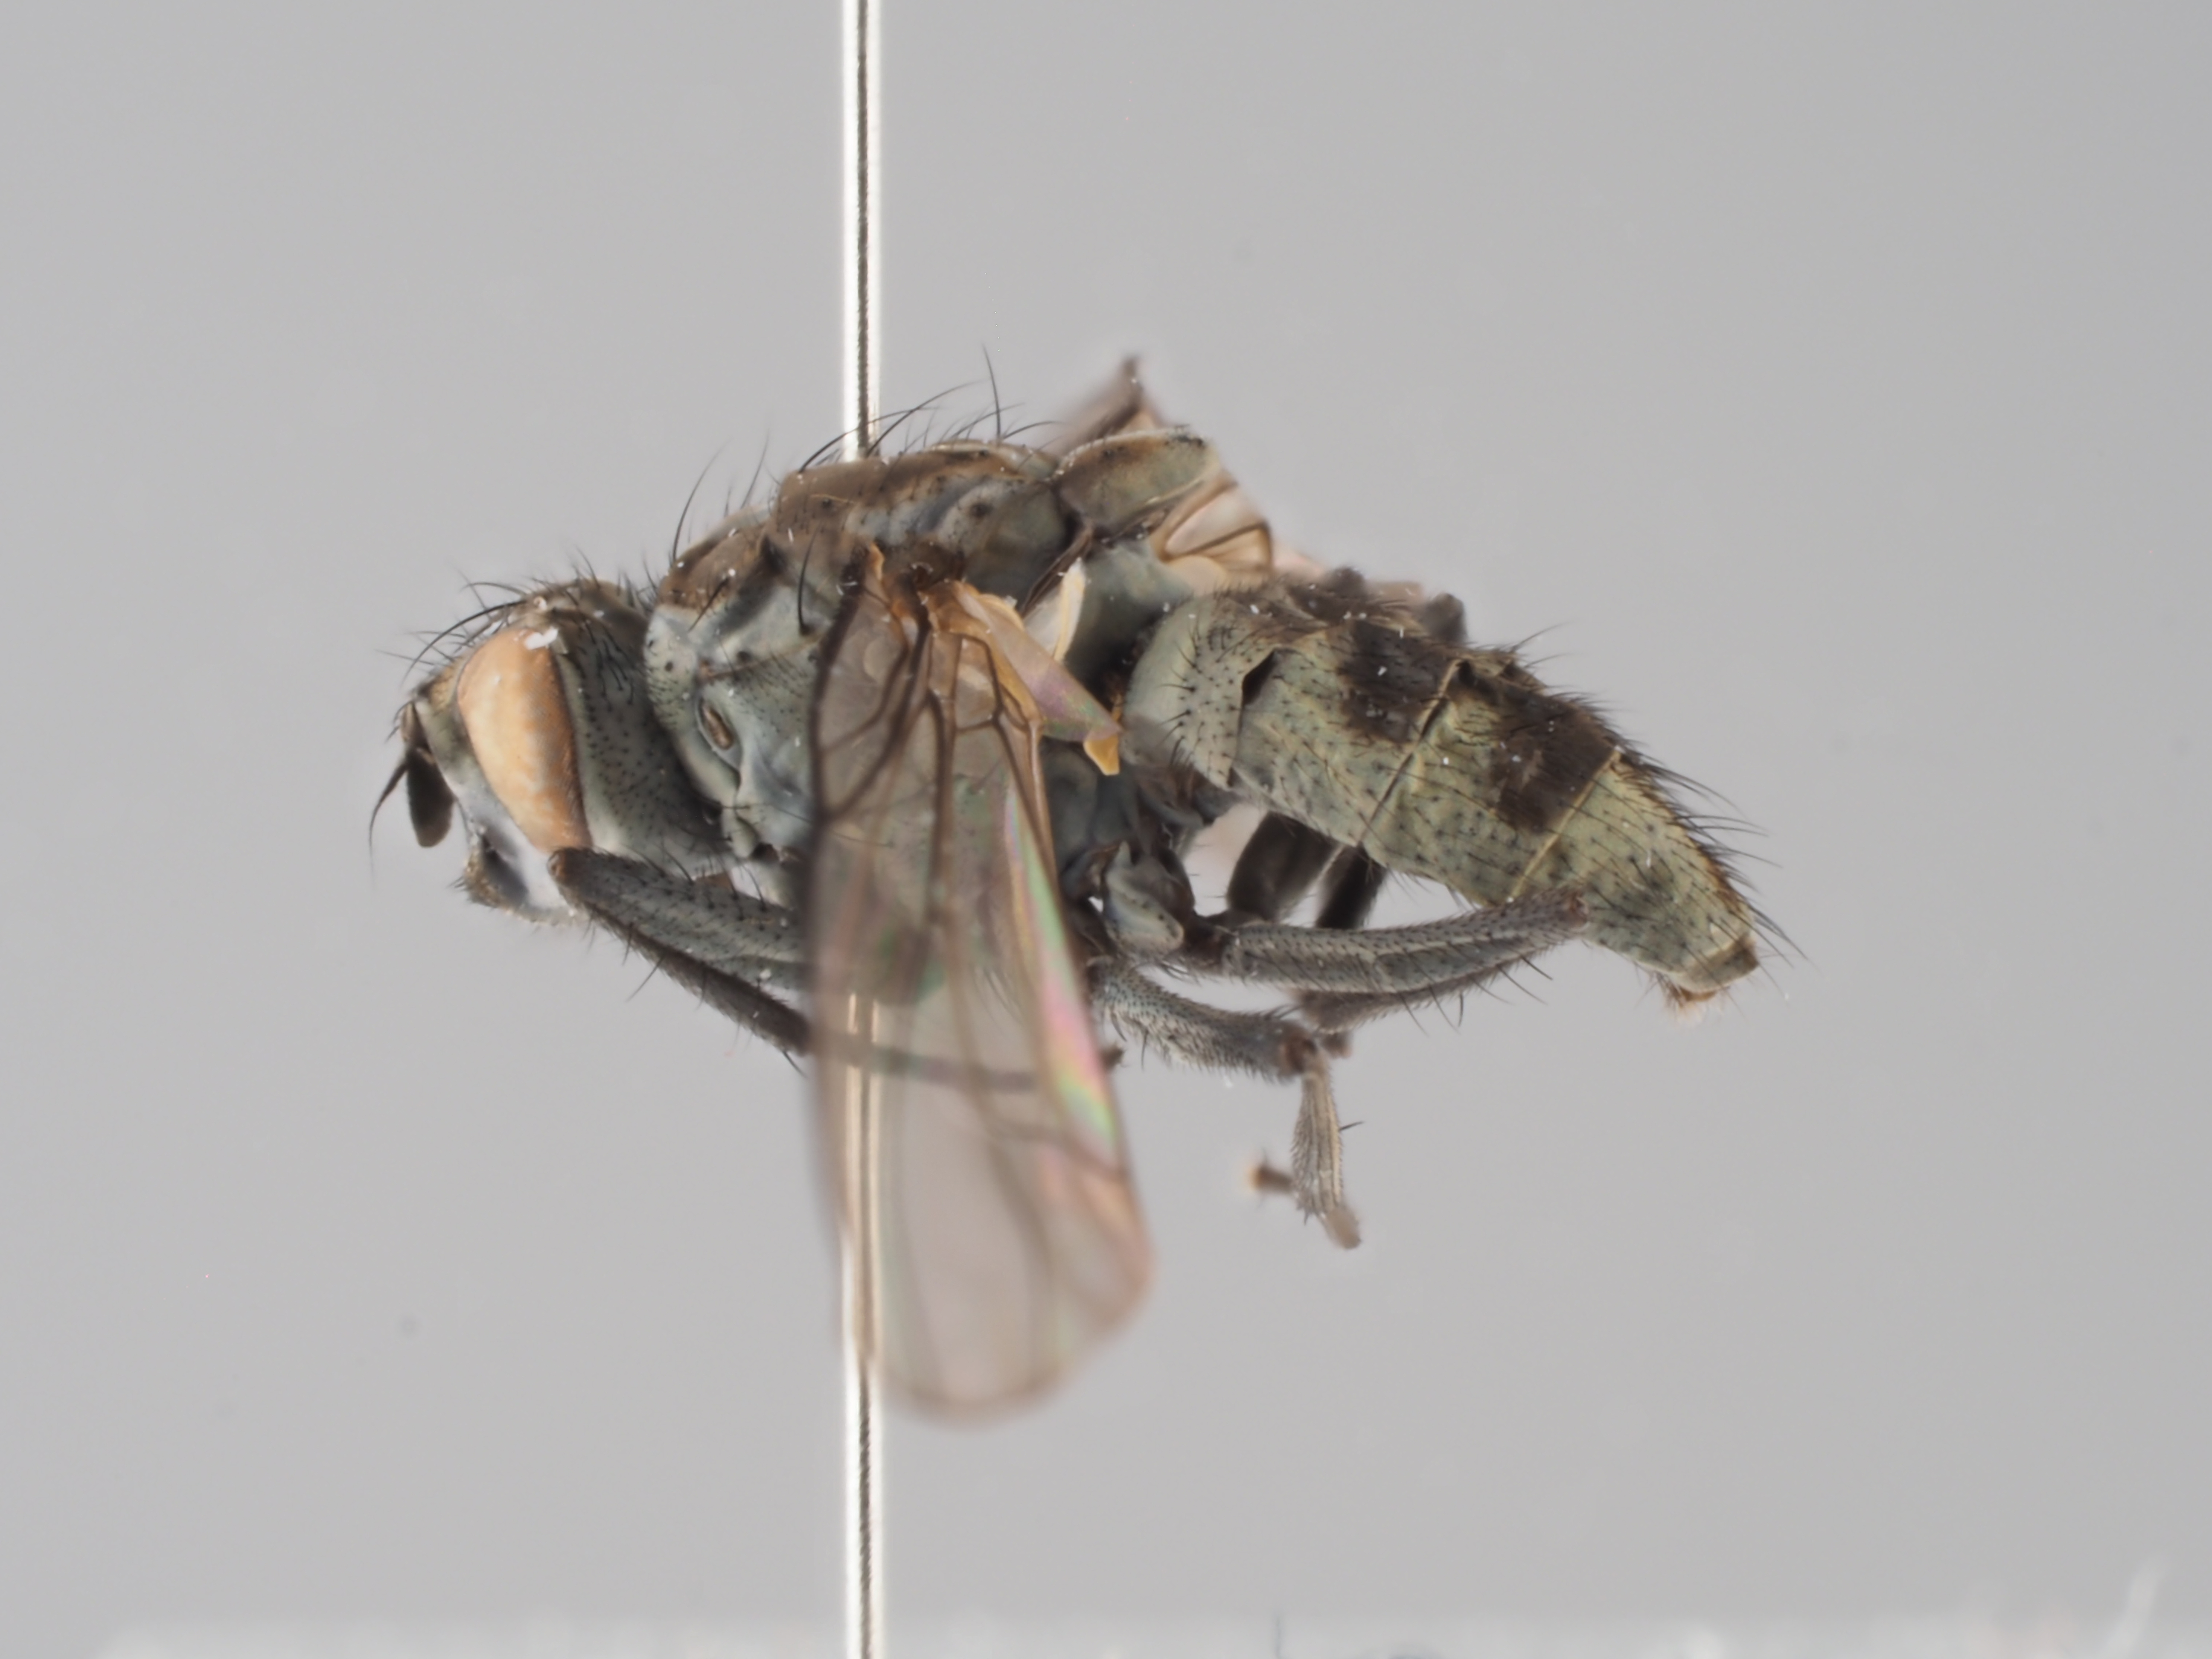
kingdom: Animalia
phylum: Arthropoda
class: Insecta
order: Diptera
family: Muscidae
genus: Limnophora
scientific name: Limnophora riparia
